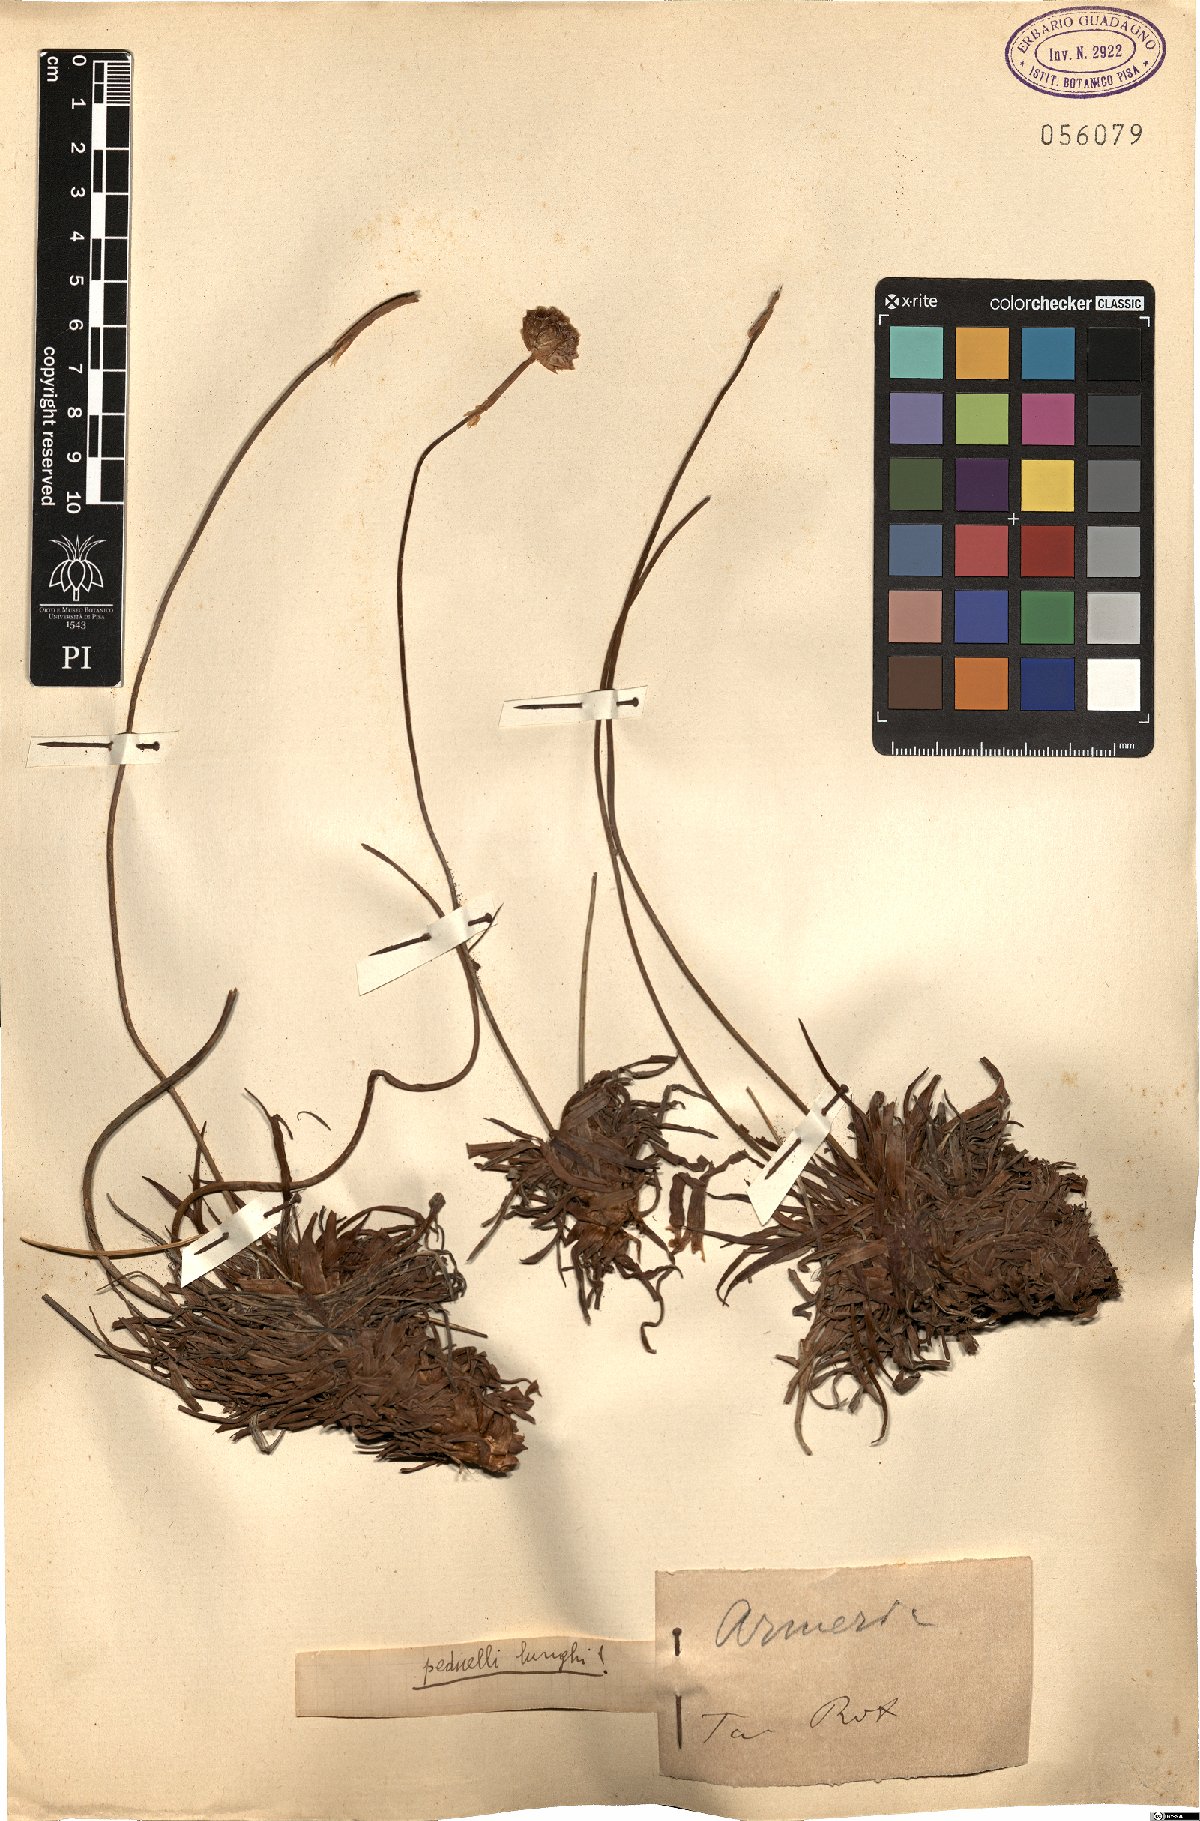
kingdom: Plantae
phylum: Tracheophyta
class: Magnoliopsida
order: Caryophyllales
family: Plumbaginaceae
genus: Armeria
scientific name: Armeria
